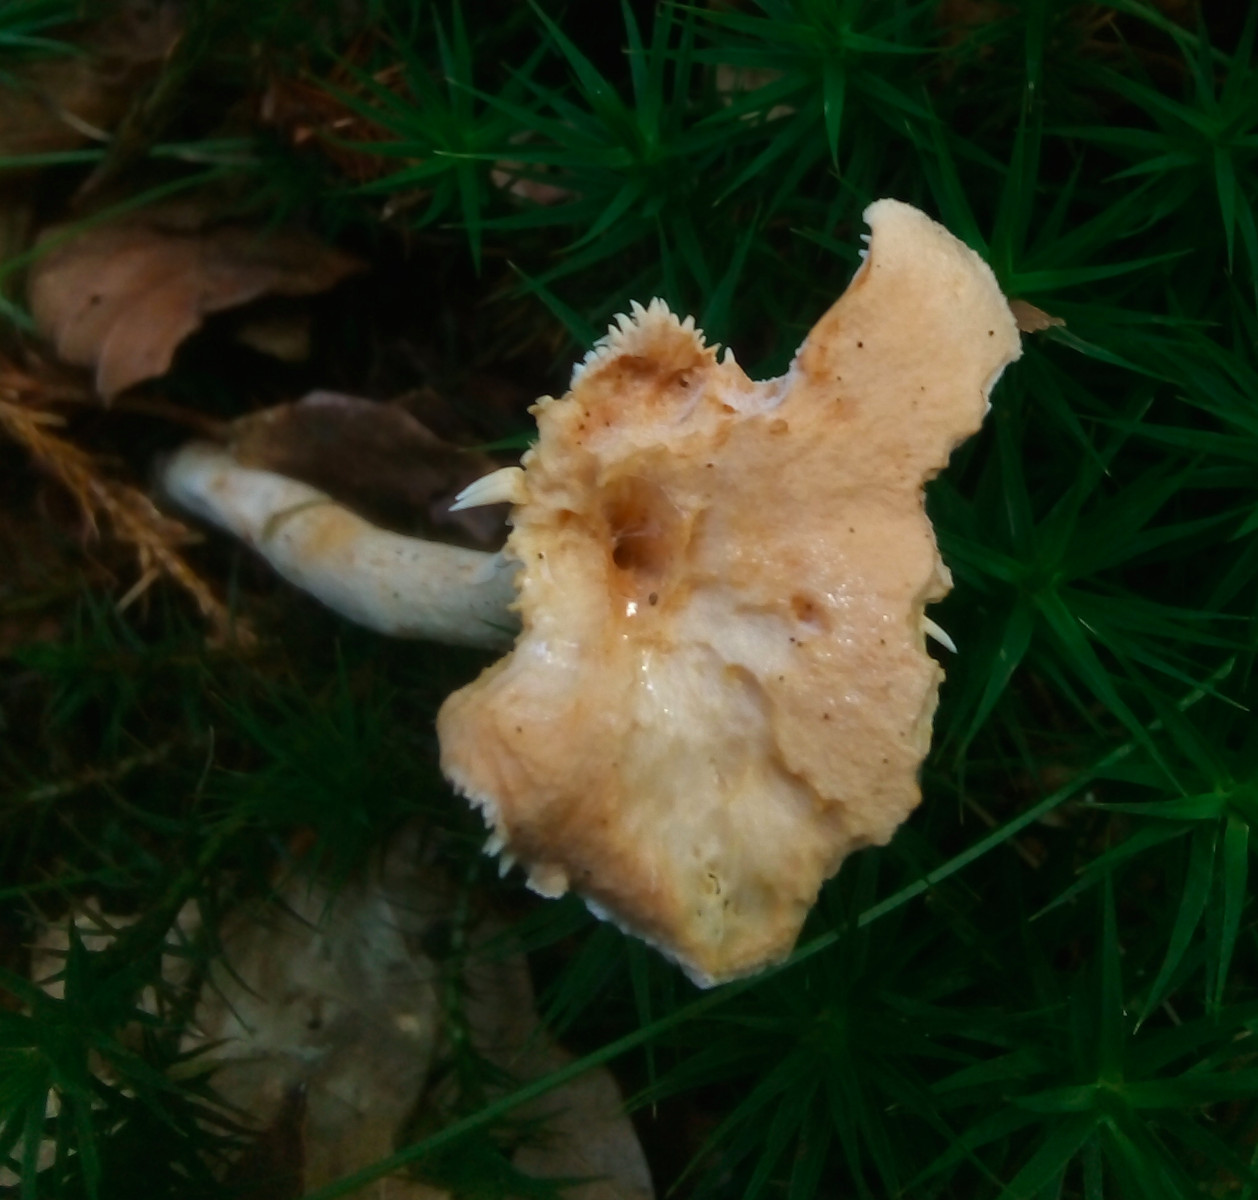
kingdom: Fungi
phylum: Basidiomycota
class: Agaricomycetes
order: Cantharellales
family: Hydnaceae
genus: Hydnum
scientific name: Hydnum umbilicatum
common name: navle-pigsvamp
